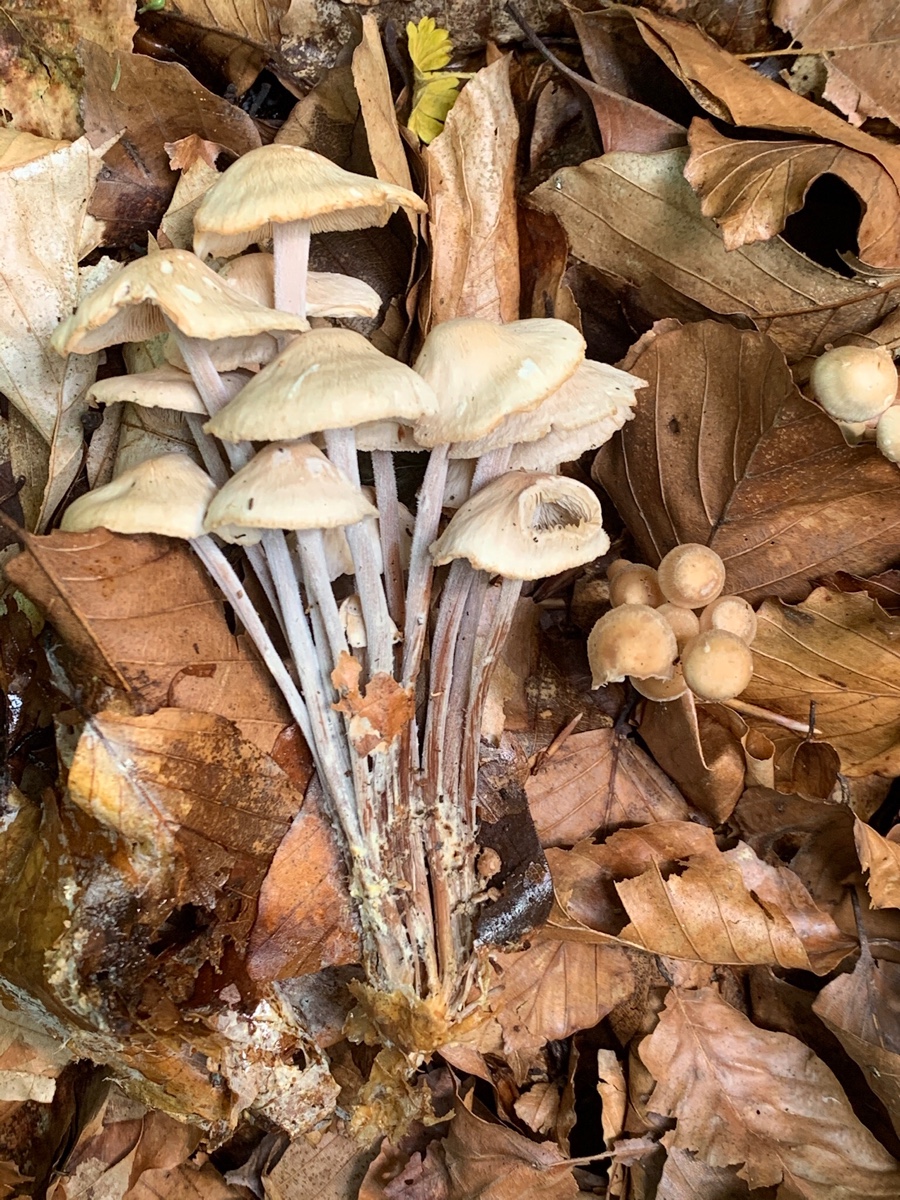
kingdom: Fungi
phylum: Basidiomycota
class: Agaricomycetes
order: Agaricales
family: Omphalotaceae
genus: Collybiopsis
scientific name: Collybiopsis confluens
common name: knippe-fladhat
